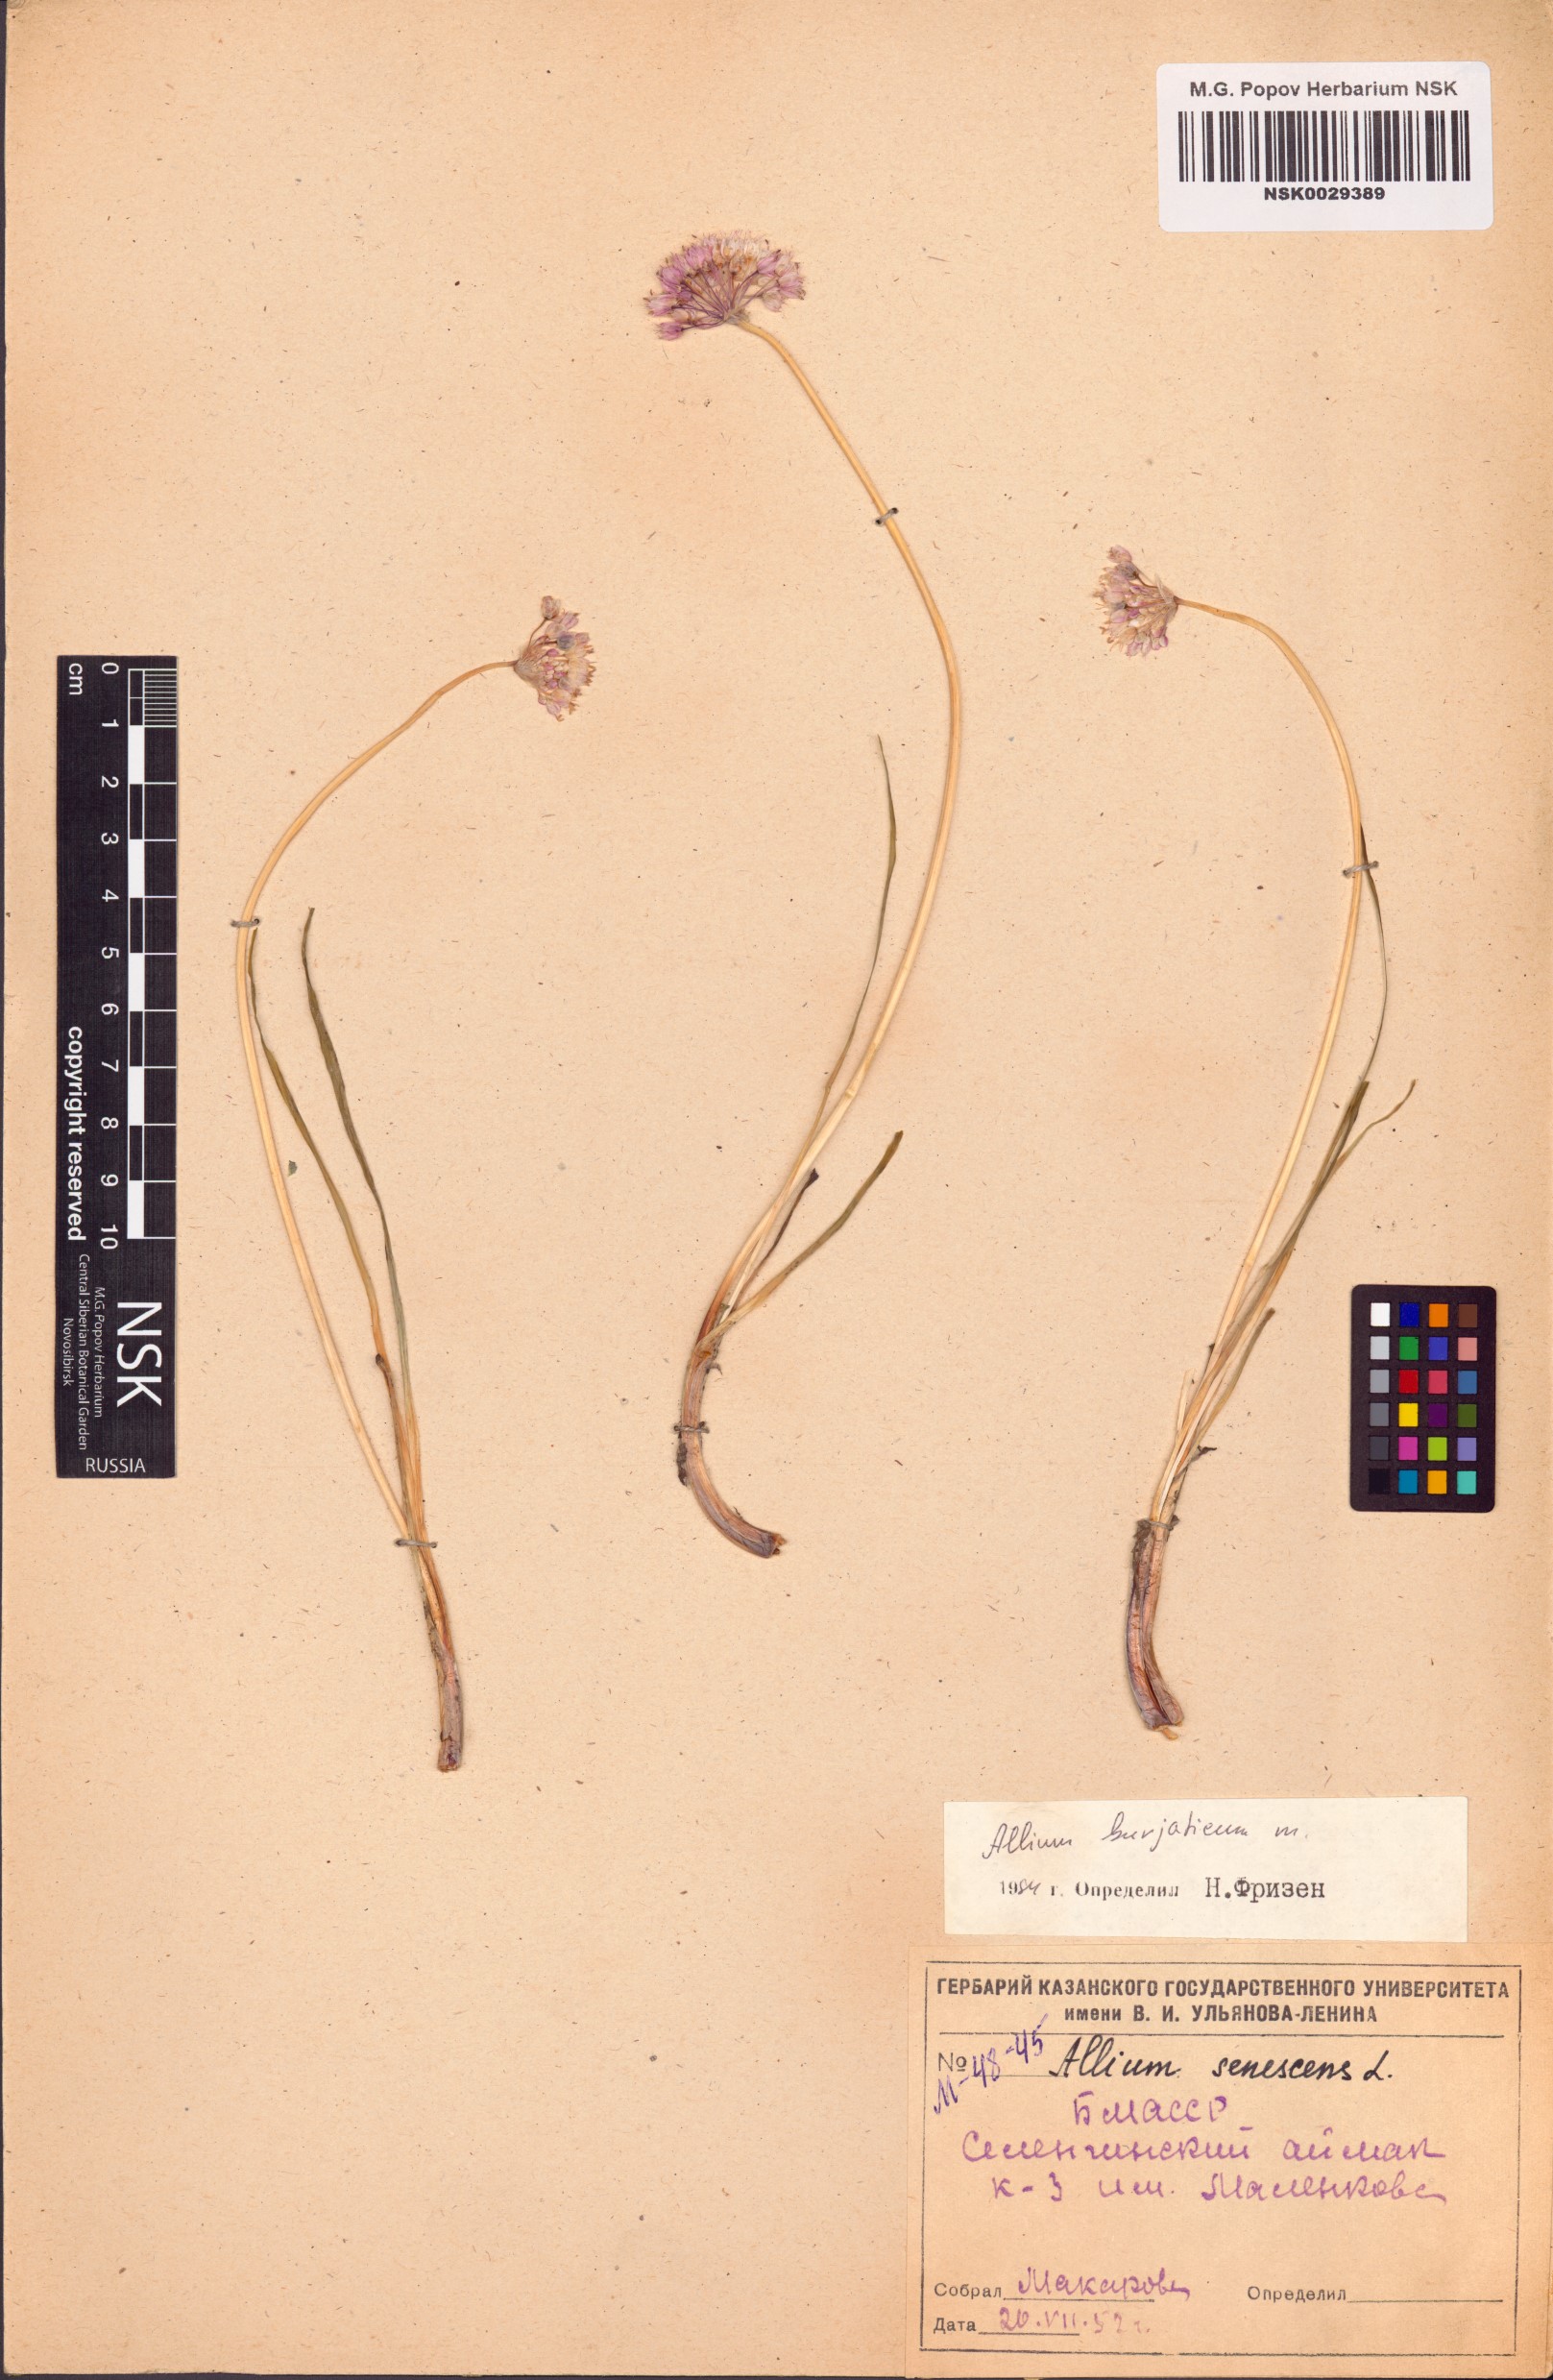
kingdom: Plantae
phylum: Tracheophyta
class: Liliopsida
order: Asparagales
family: Amaryllidaceae
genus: Allium
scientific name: Allium burjaticum
